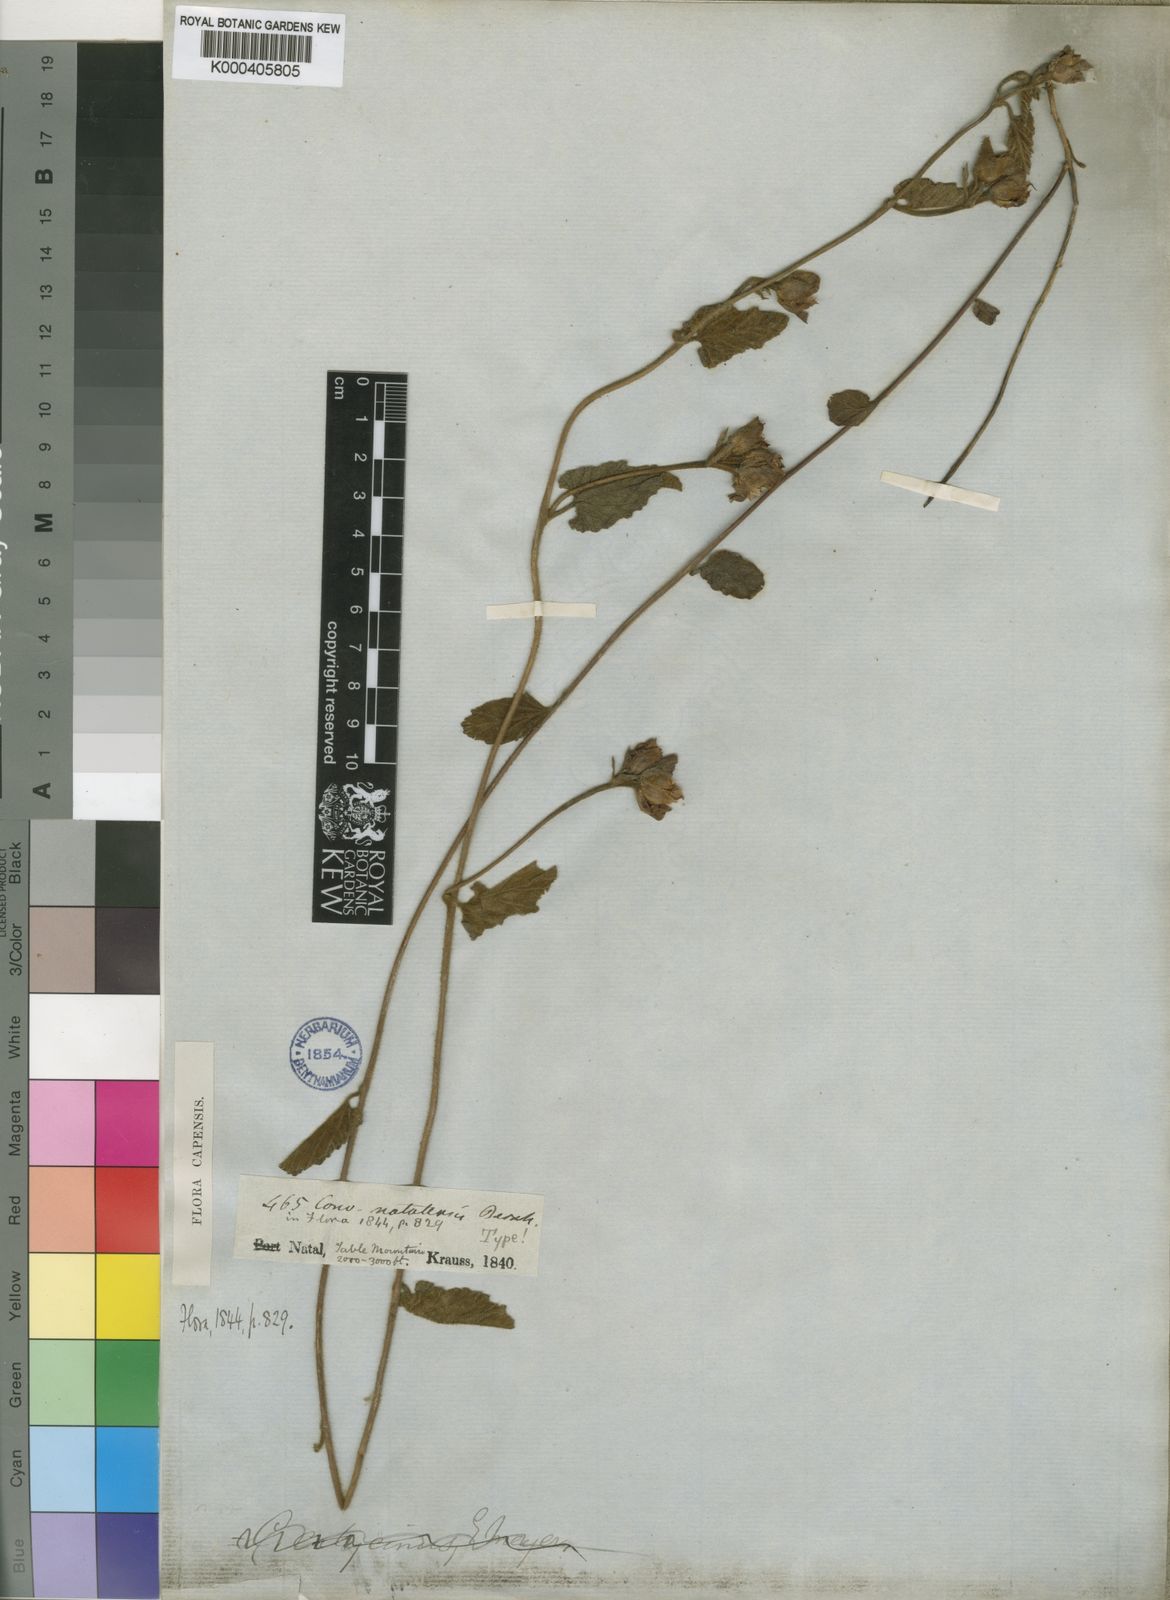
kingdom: Plantae
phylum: Tracheophyta
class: Magnoliopsida
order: Solanales
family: Convolvulaceae
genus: Convolvulus
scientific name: Convolvulus natalensis
